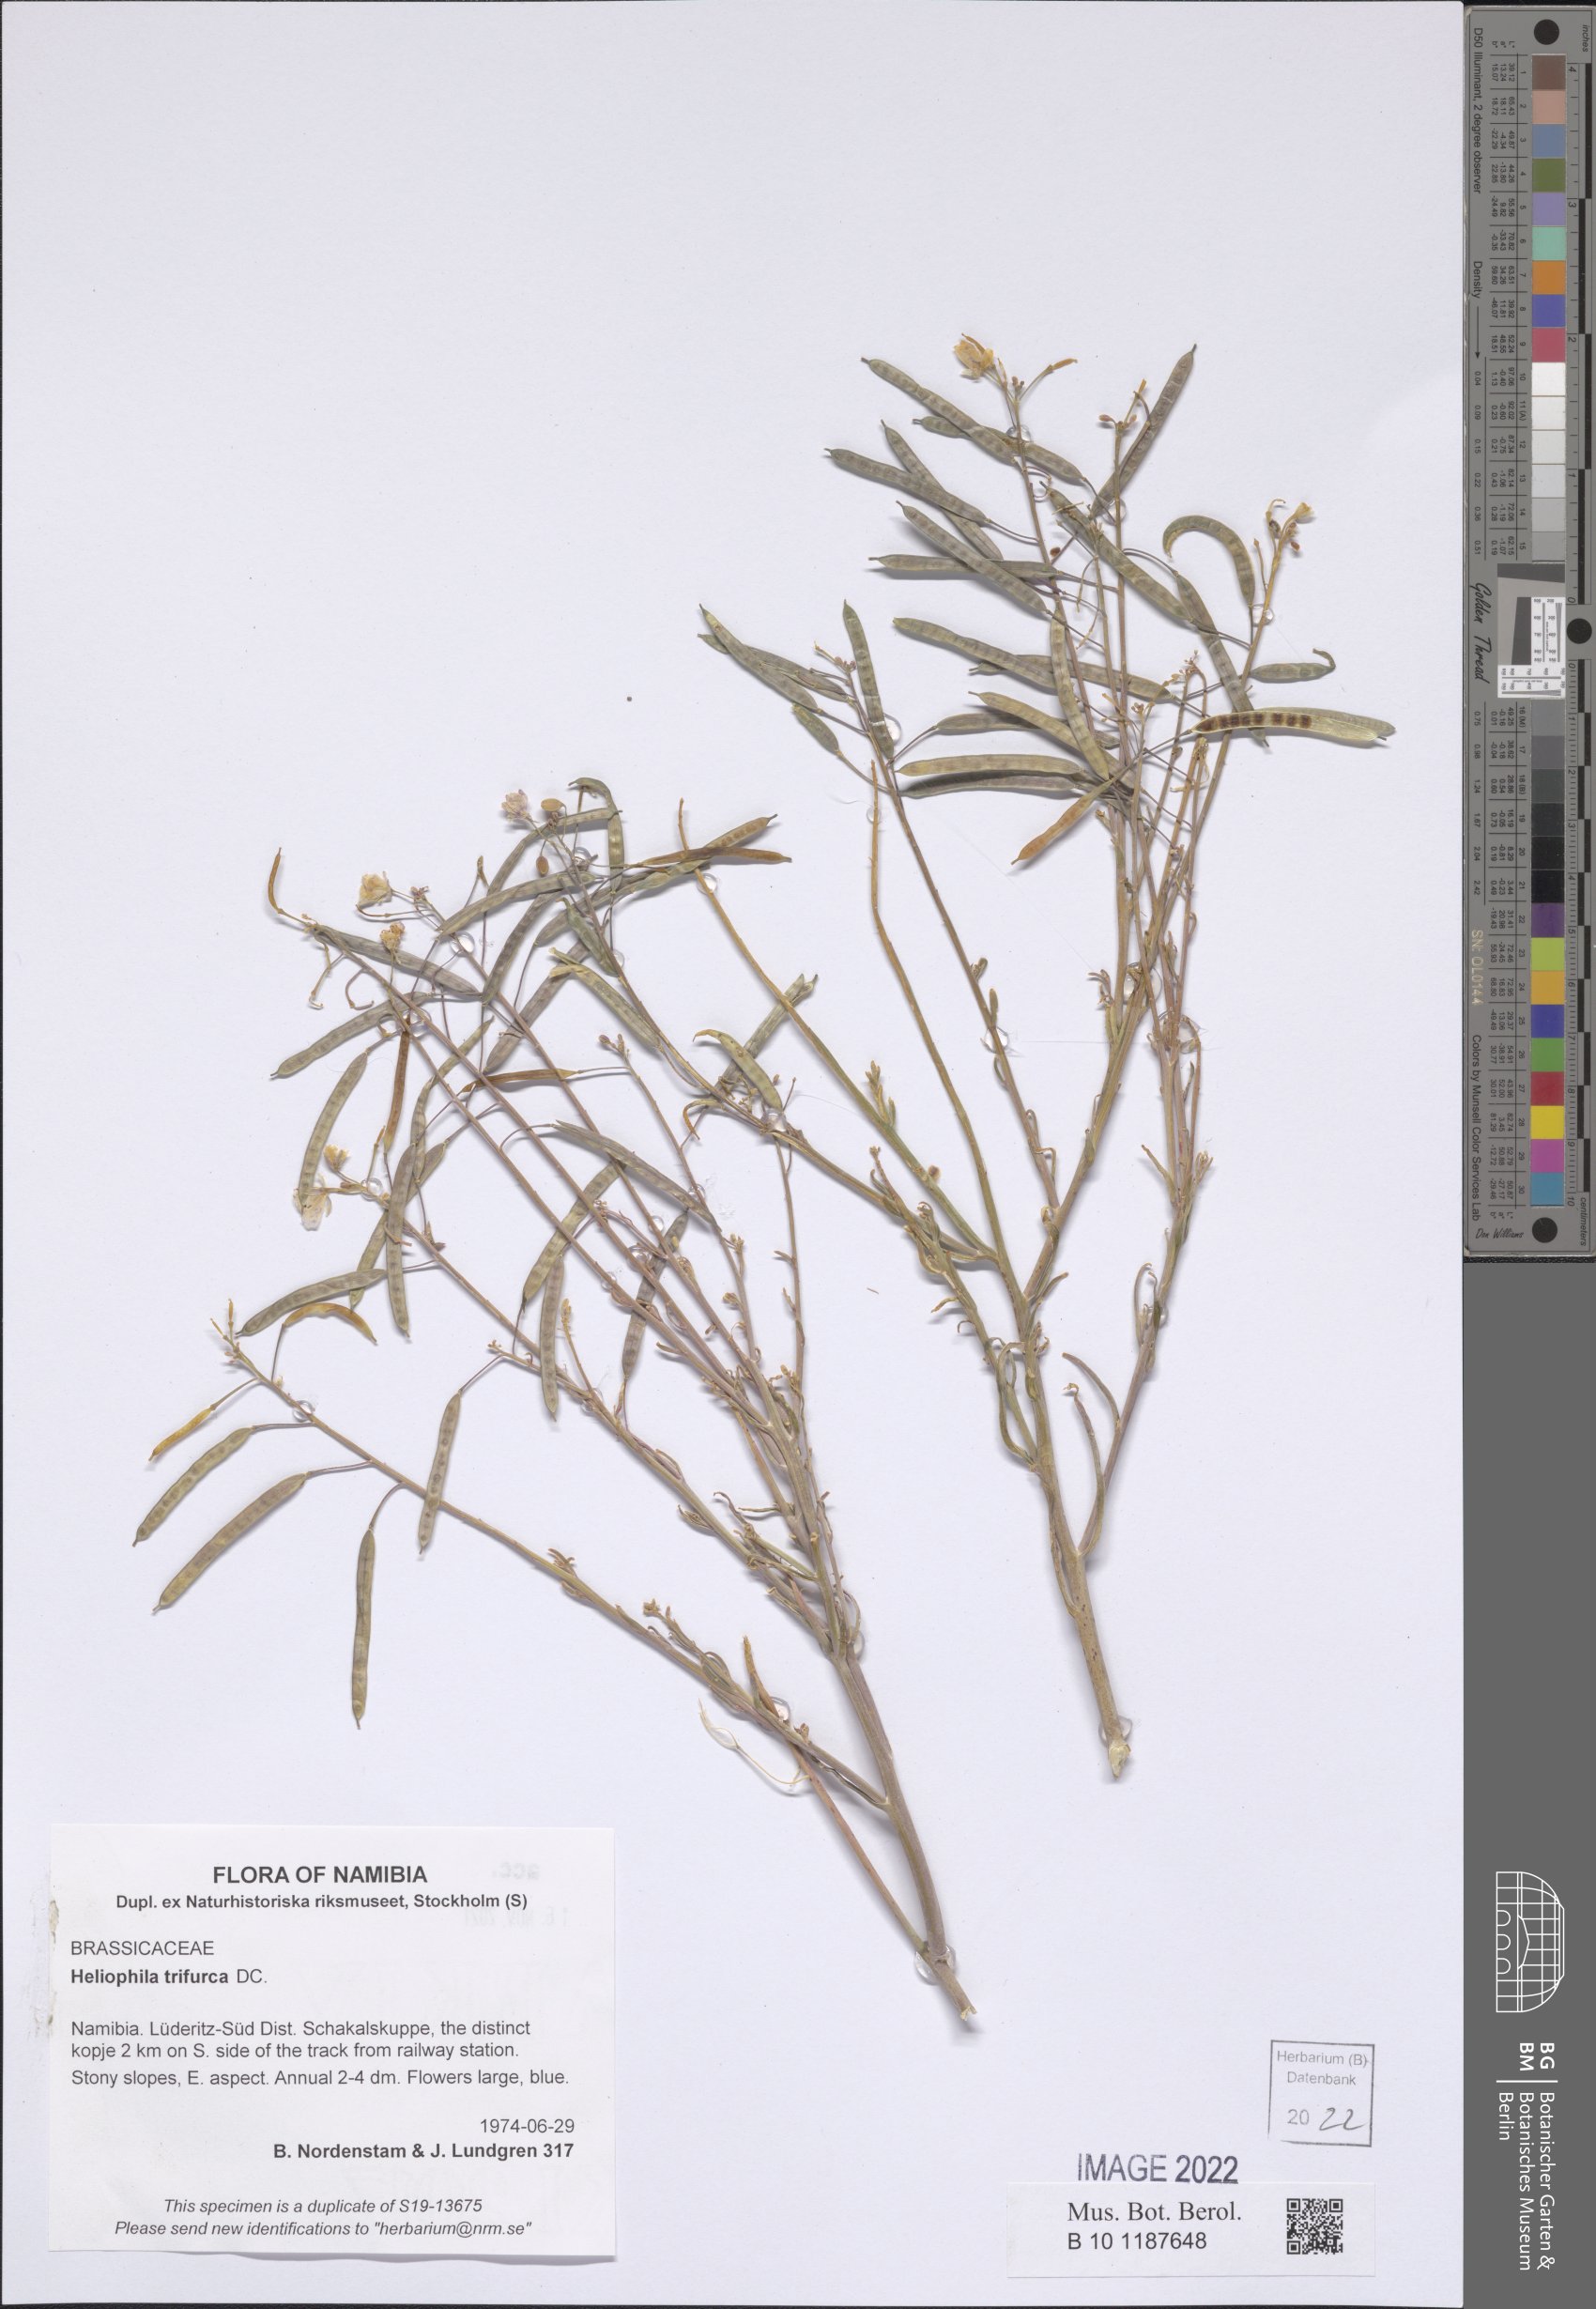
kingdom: Plantae
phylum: Tracheophyta
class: Magnoliopsida
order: Brassicales
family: Brassicaceae
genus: Heliophila
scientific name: Heliophila trifurca
